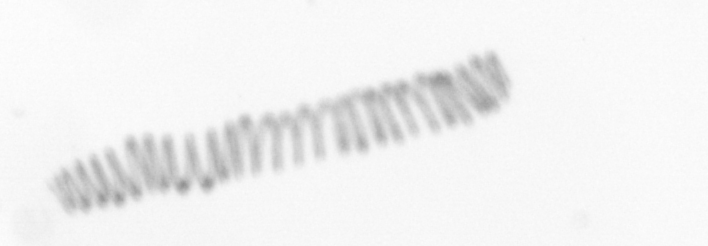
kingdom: Chromista
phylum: Ochrophyta
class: Bacillariophyceae
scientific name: Bacillariophyceae
